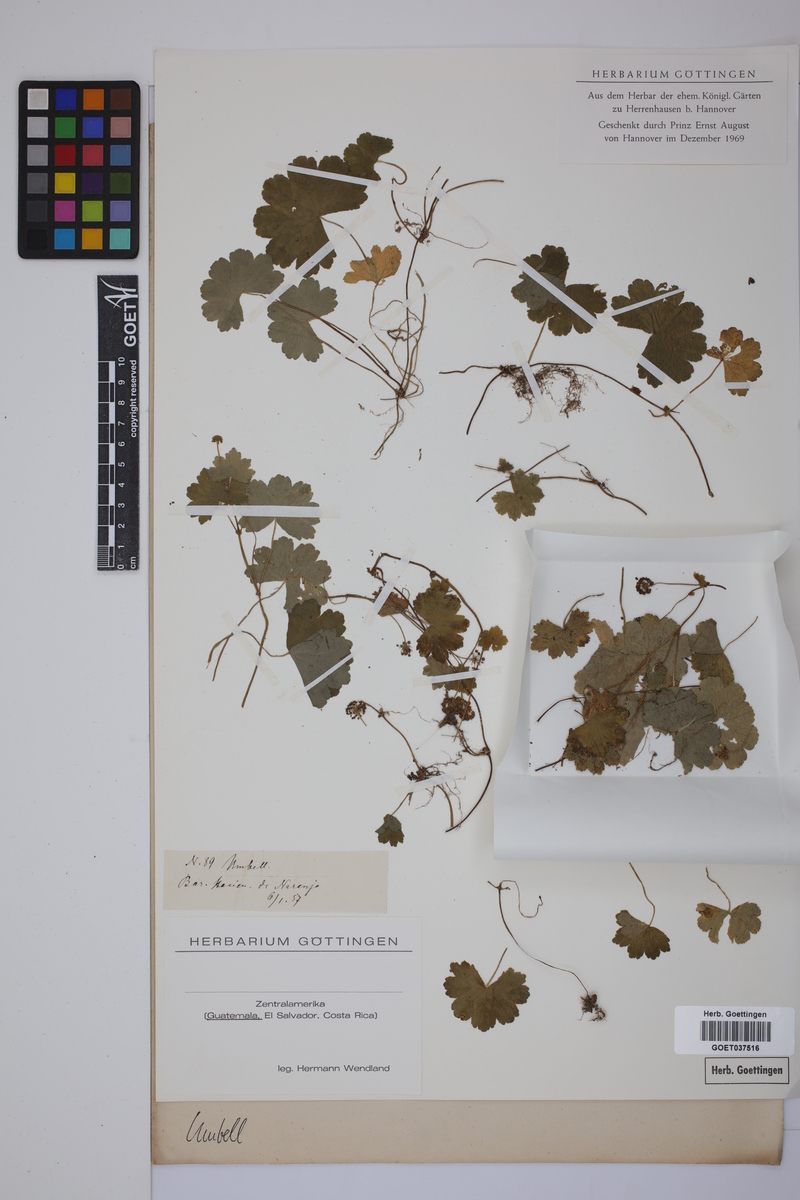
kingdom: Plantae
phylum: Tracheophyta
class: Magnoliopsida
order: Apiales
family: Apiaceae
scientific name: Apiaceae
